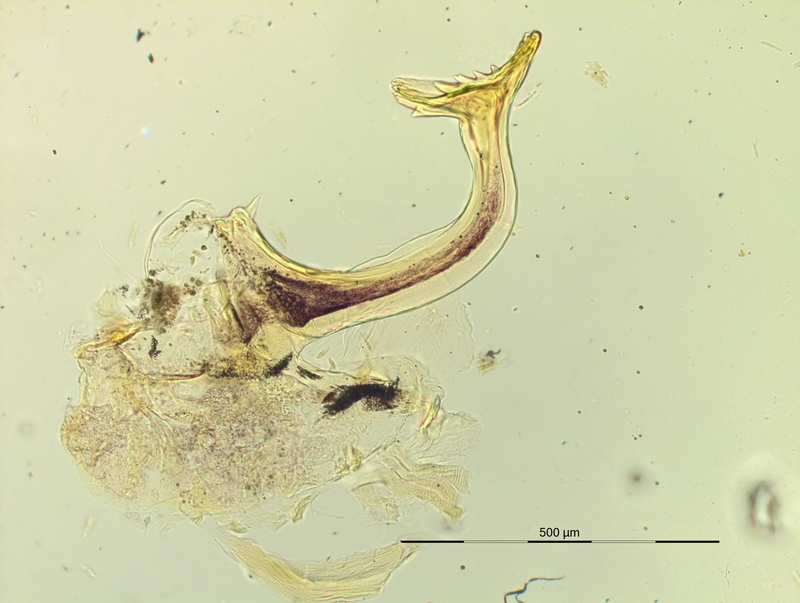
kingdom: Animalia
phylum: Arthropoda
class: Diplopoda
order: Chordeumatida
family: Craspedosomatidae
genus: Pyrgocyphosoma
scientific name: Pyrgocyphosoma titianum
